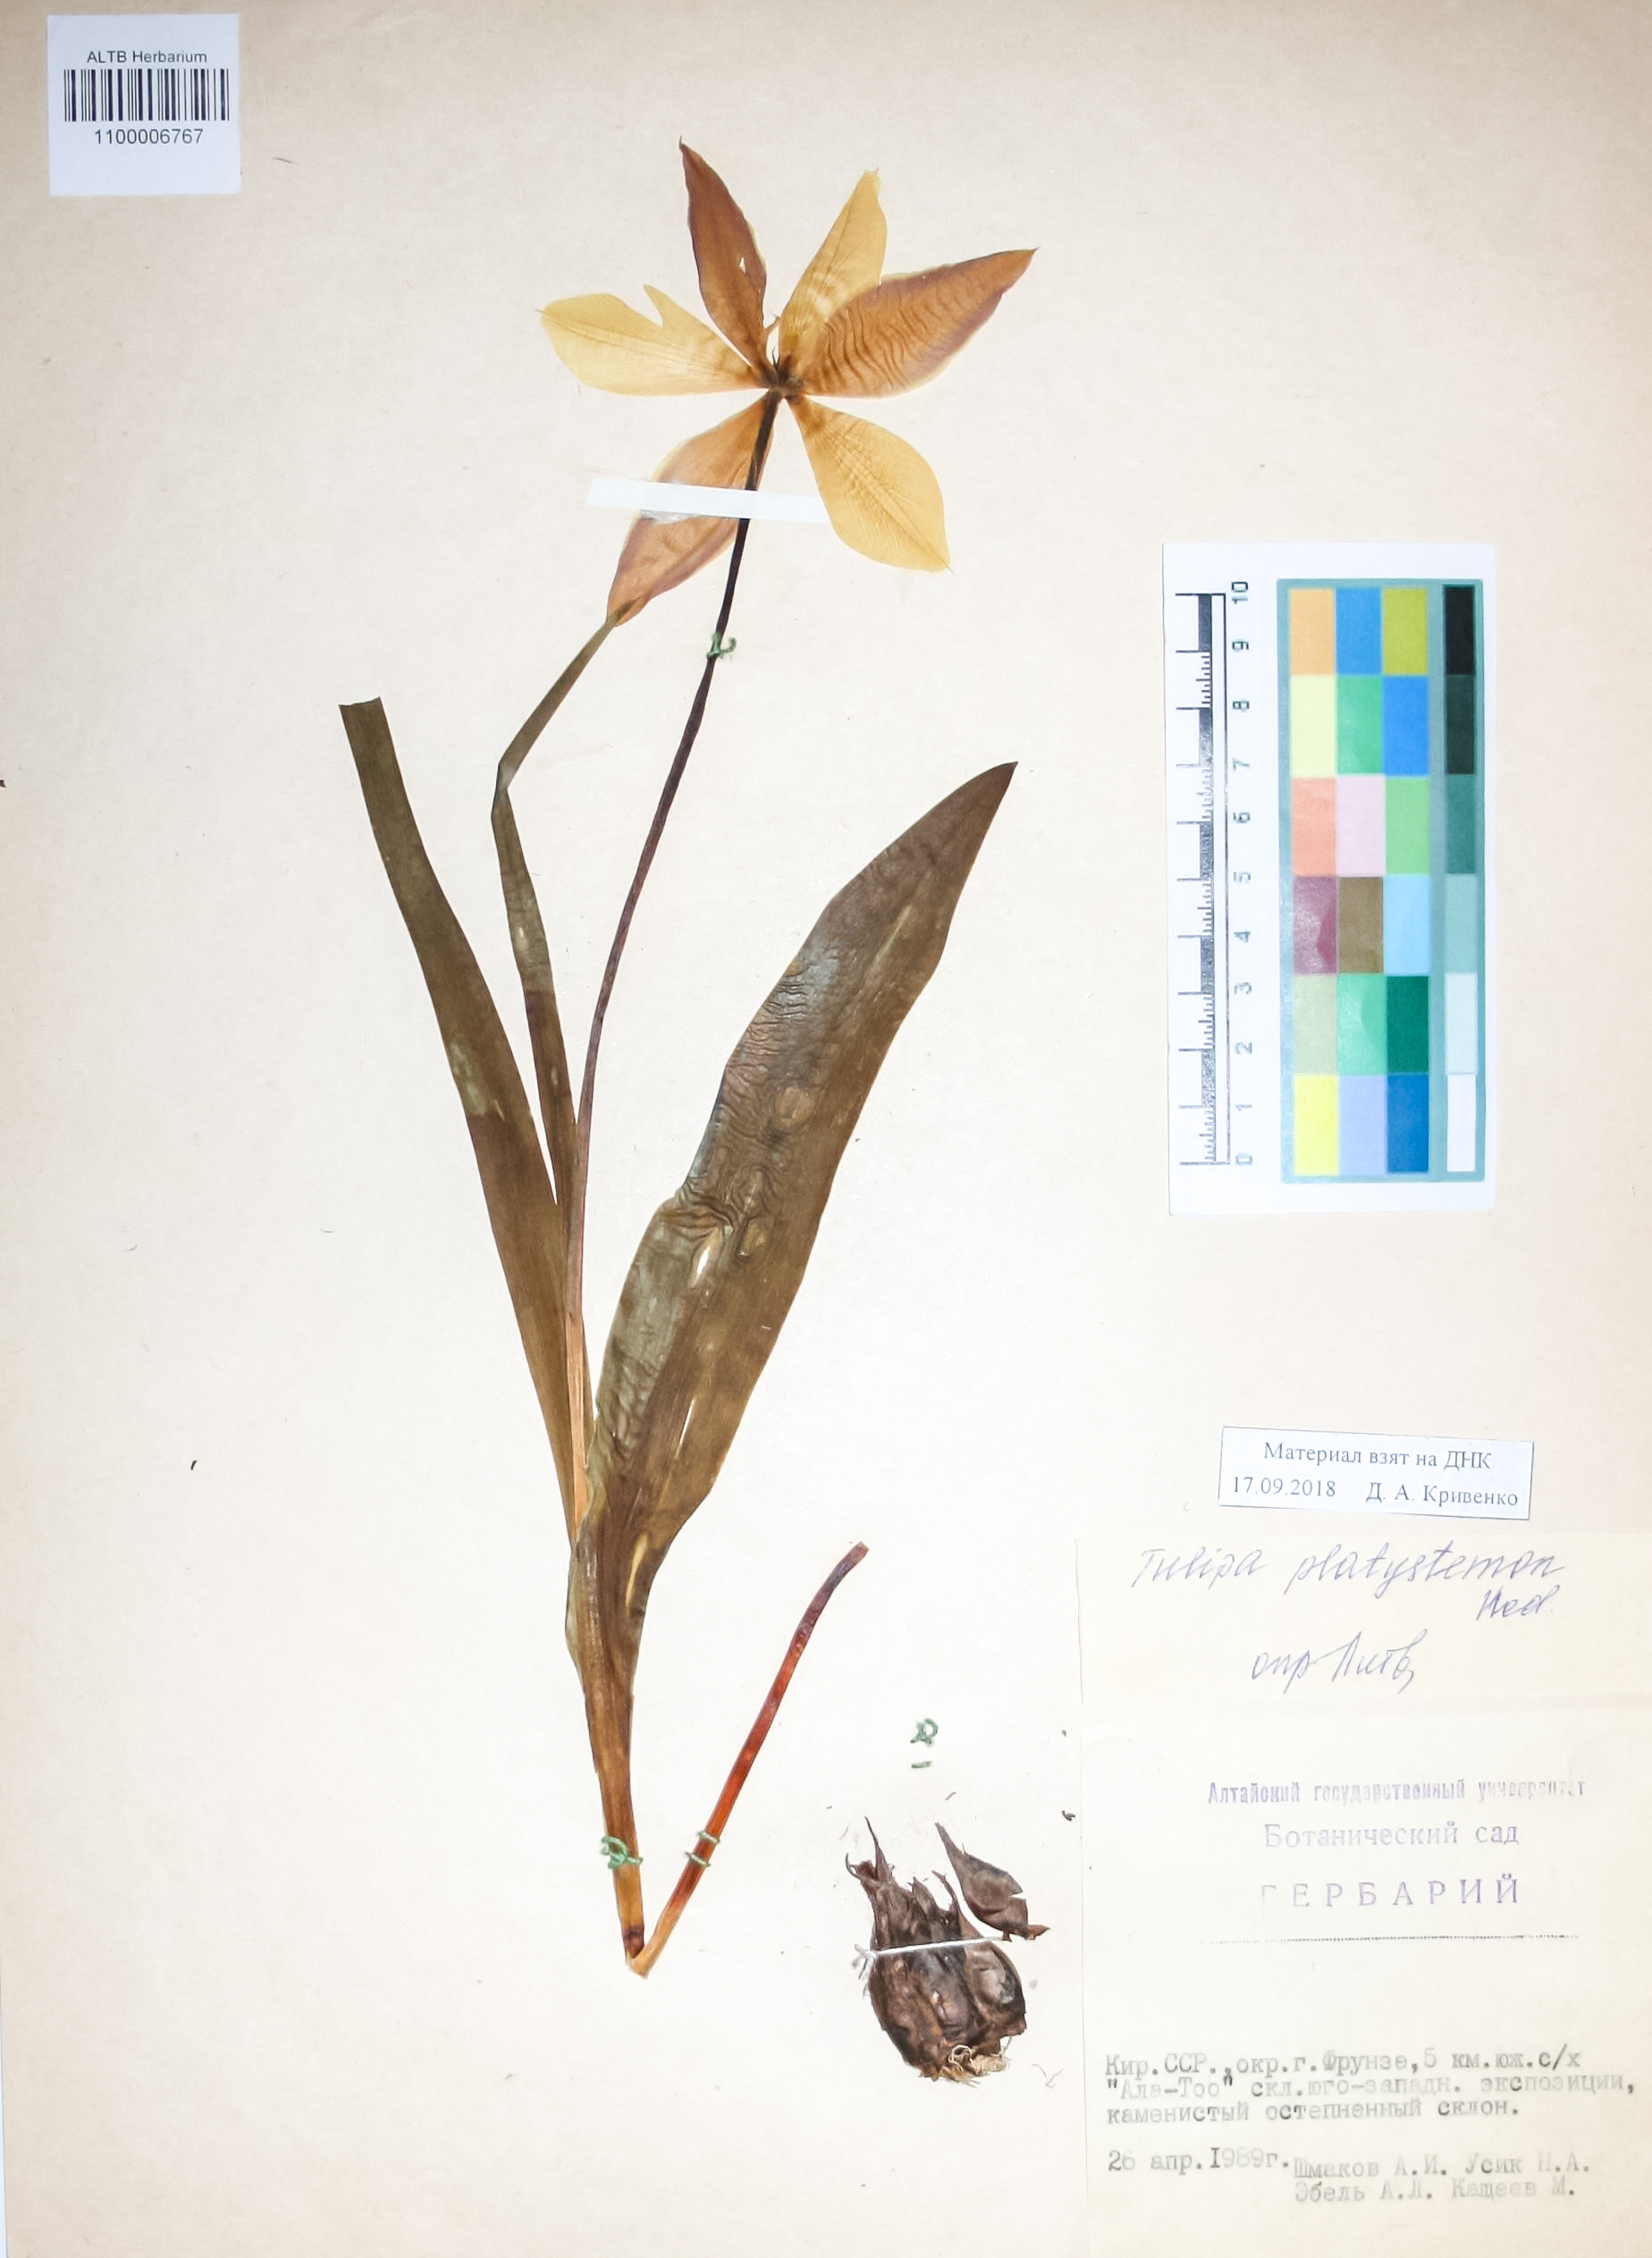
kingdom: Plantae
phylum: Tracheophyta
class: Liliopsida
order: Liliales
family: Liliaceae
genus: Tulipa
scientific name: Tulipa platystemon
